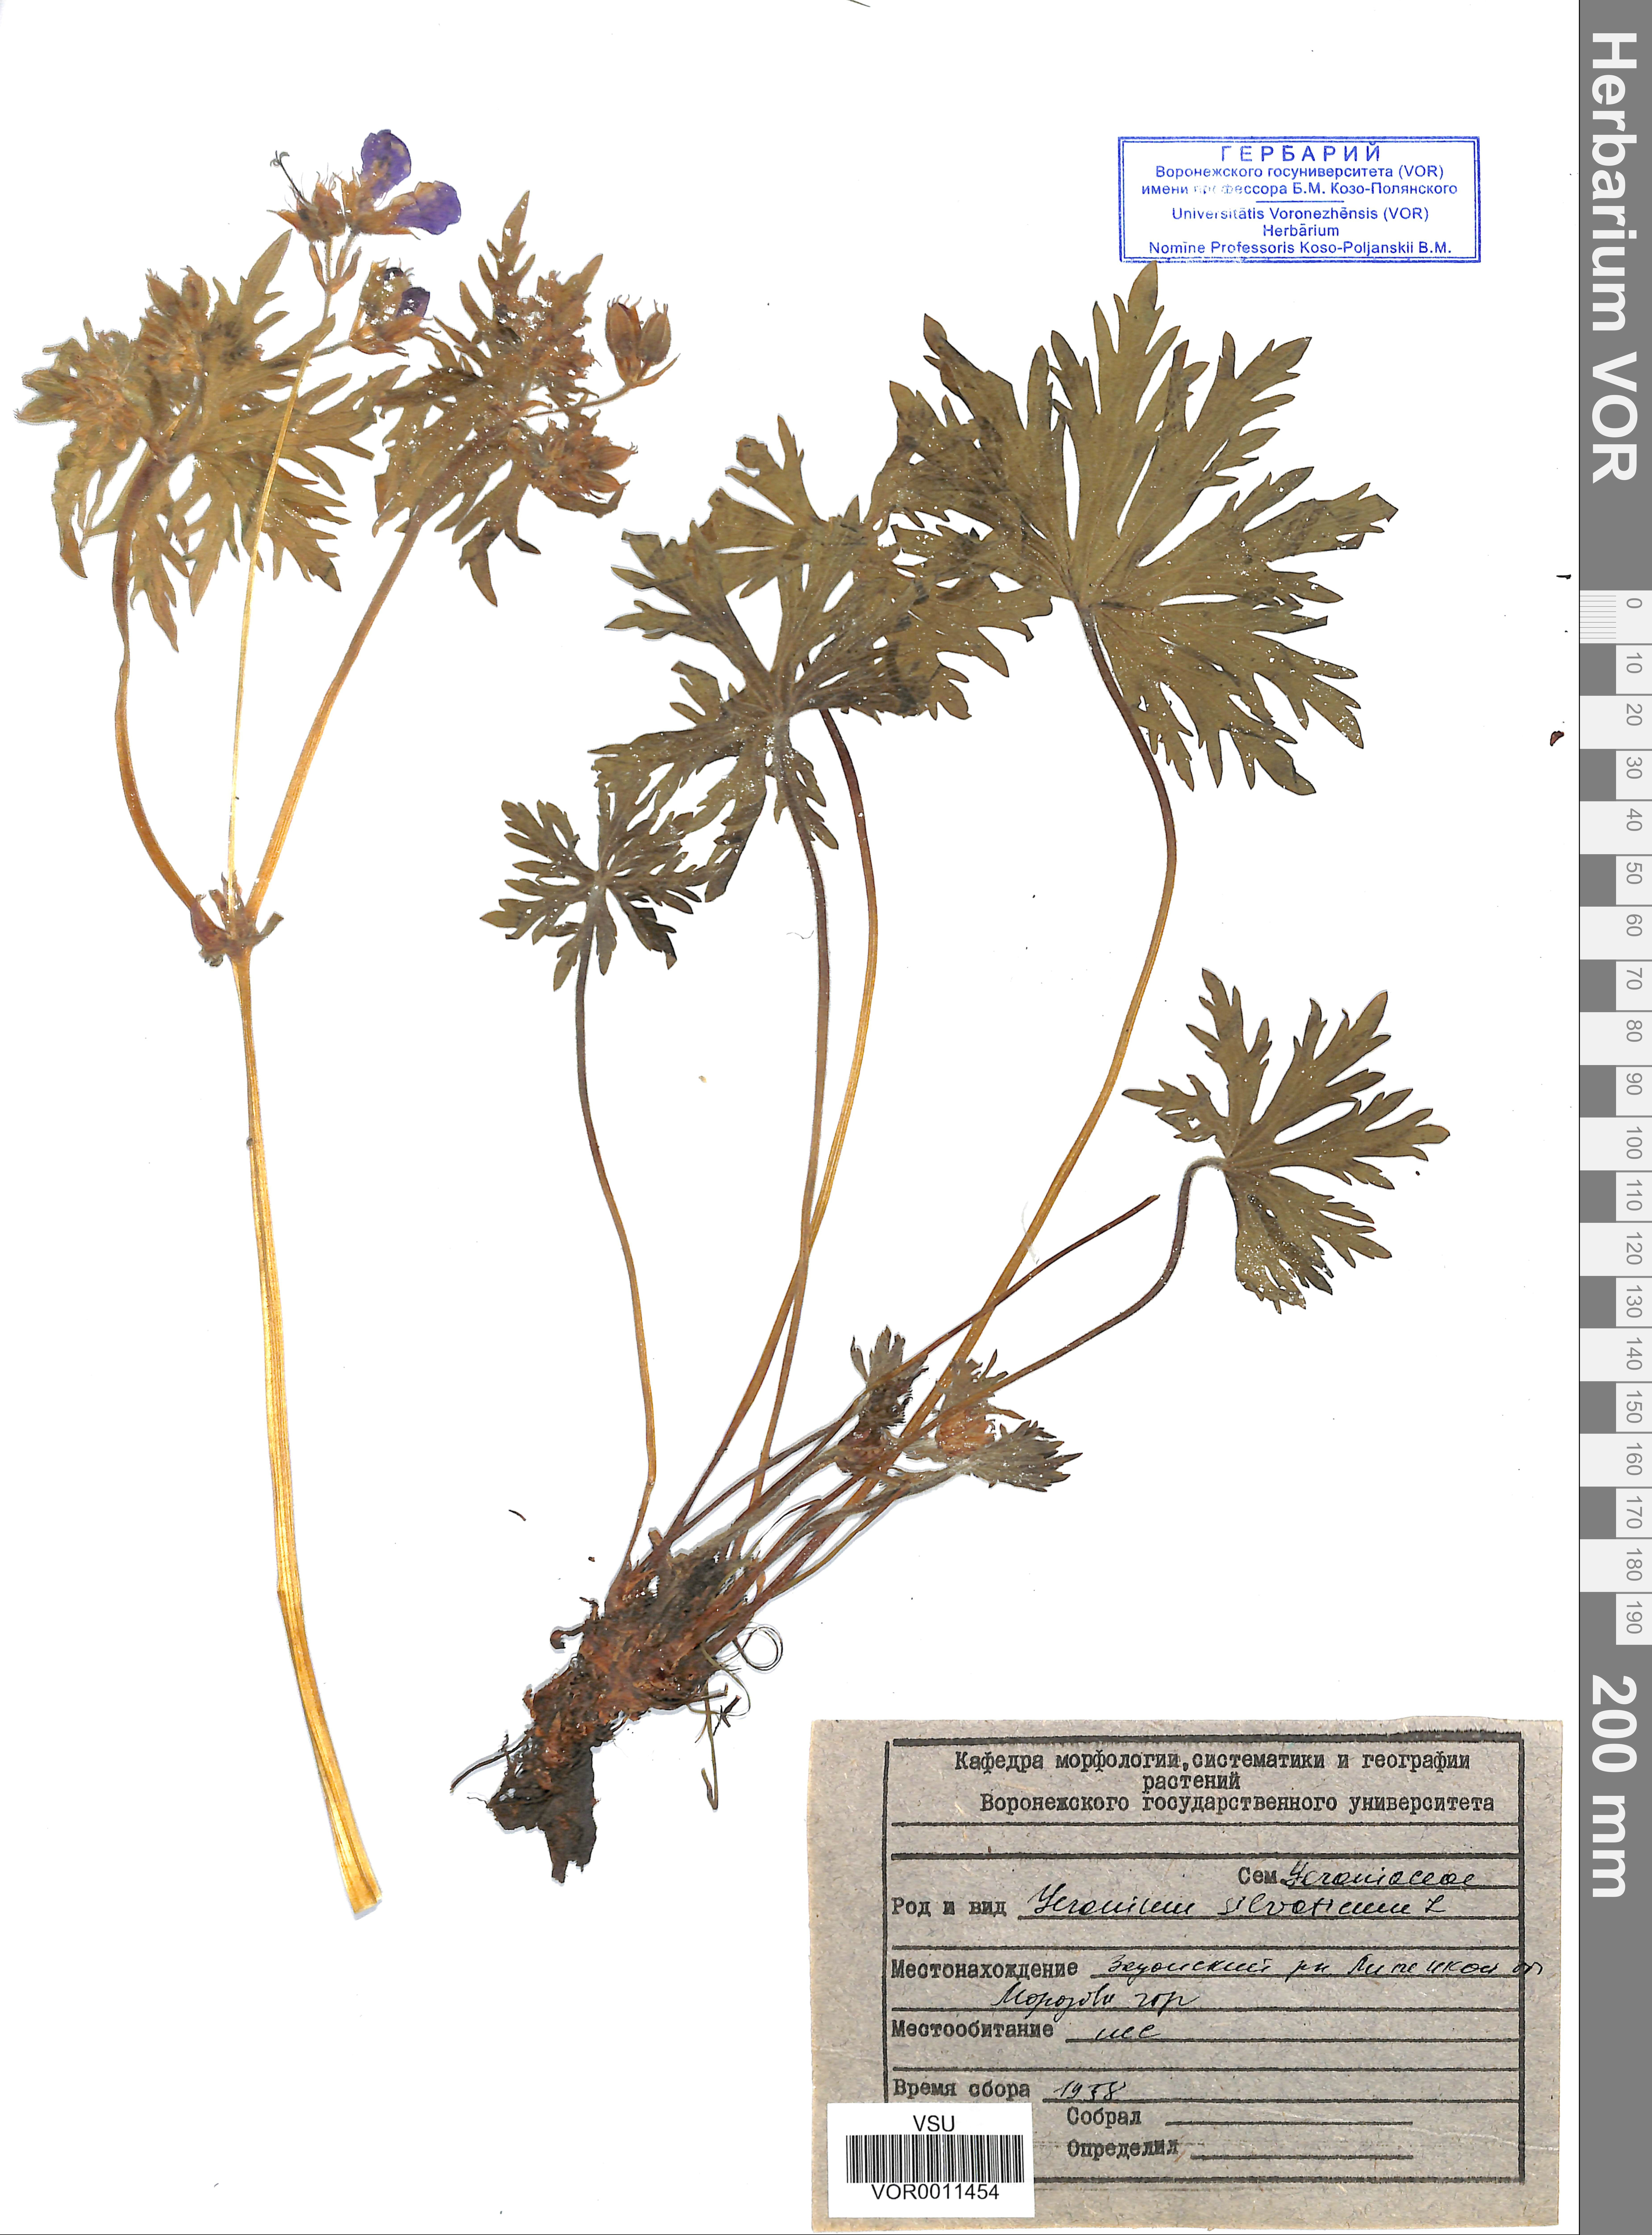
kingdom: Plantae
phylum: Tracheophyta
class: Magnoliopsida
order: Geraniales
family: Geraniaceae
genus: Geranium
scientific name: Geranium sibiricum
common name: Siberian crane's-bill
